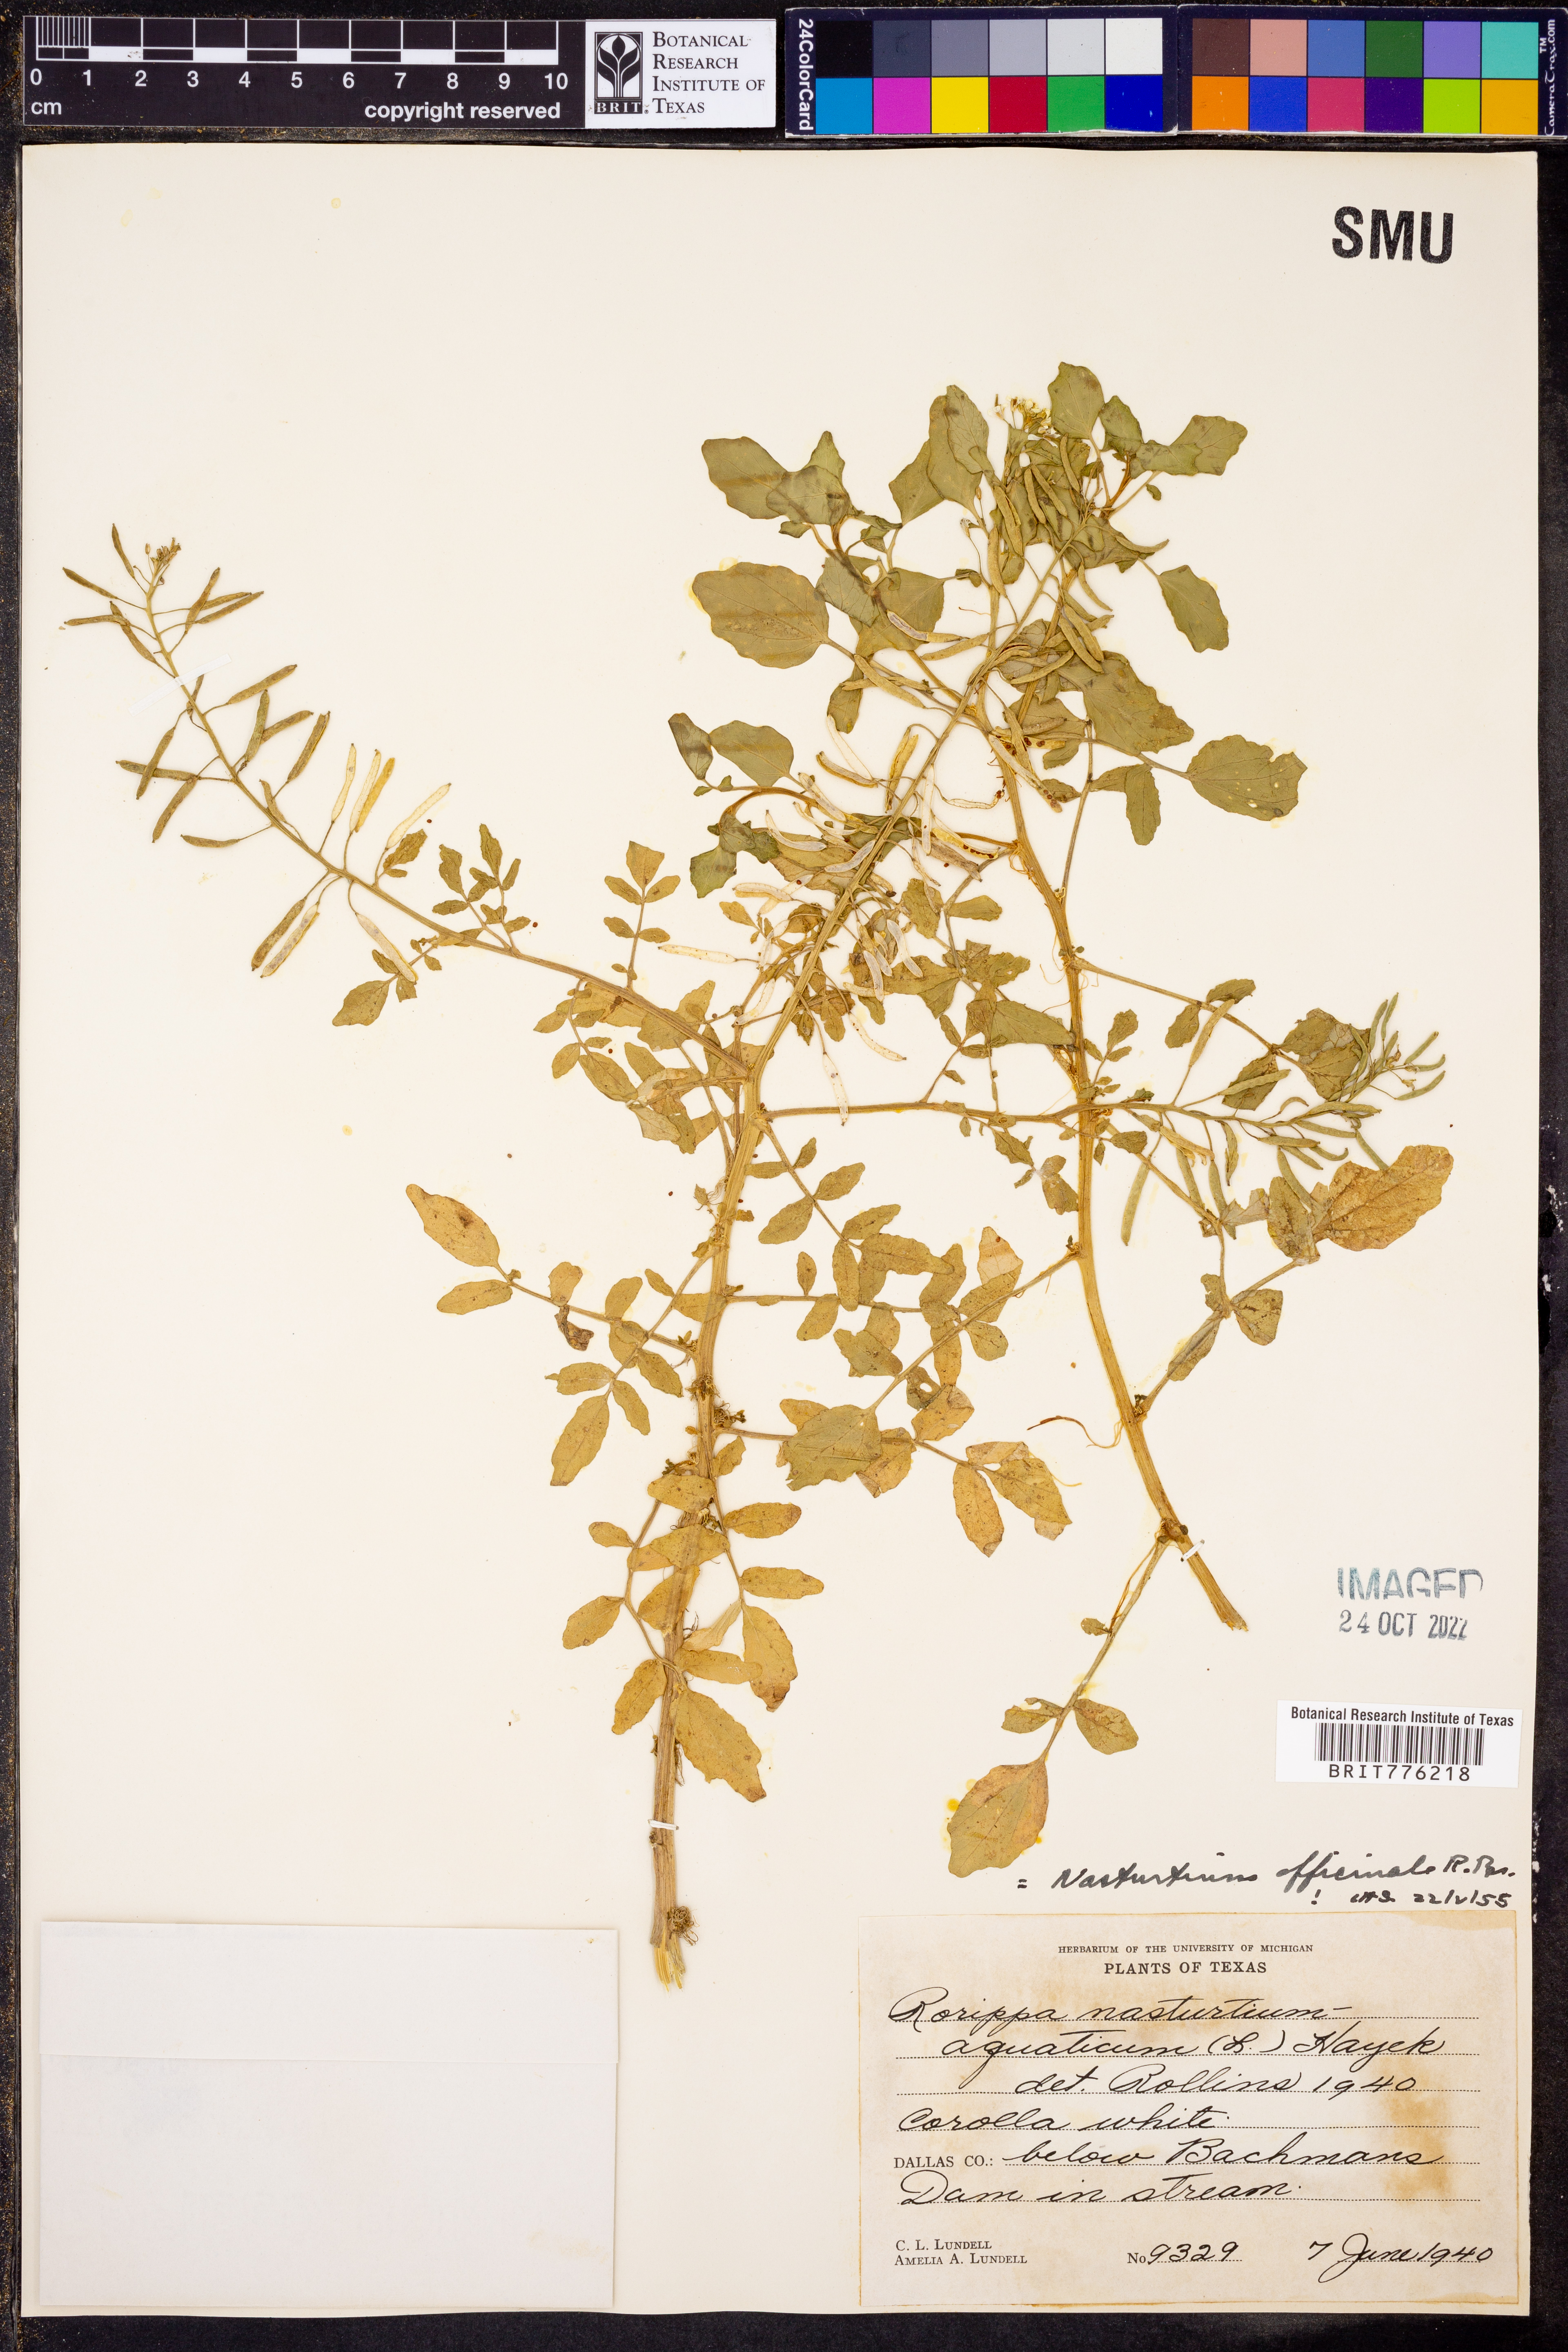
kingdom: Plantae
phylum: Tracheophyta
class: Magnoliopsida
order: Brassicales
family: Brassicaceae
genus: Rorippa
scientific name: Rorippa curvisiliqua
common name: Curve-pod yellow cress
